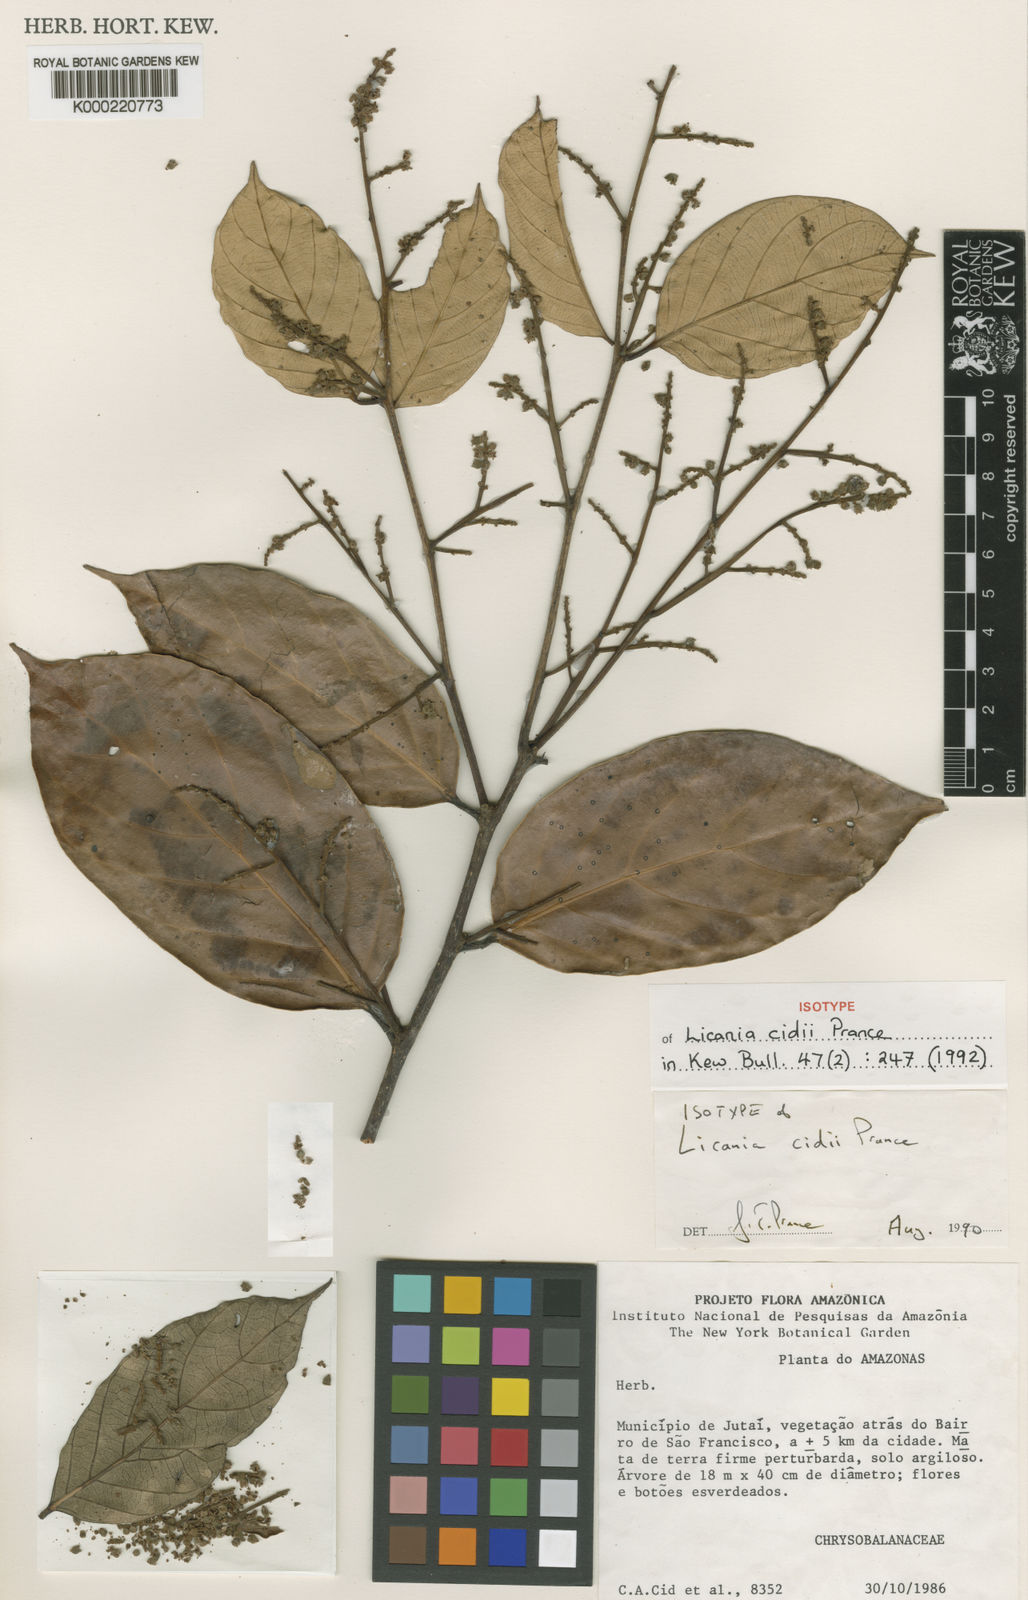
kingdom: Plantae
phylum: Tracheophyta
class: Magnoliopsida
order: Malpighiales
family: Chrysobalanaceae
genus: Licania
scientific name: Licania cidii
